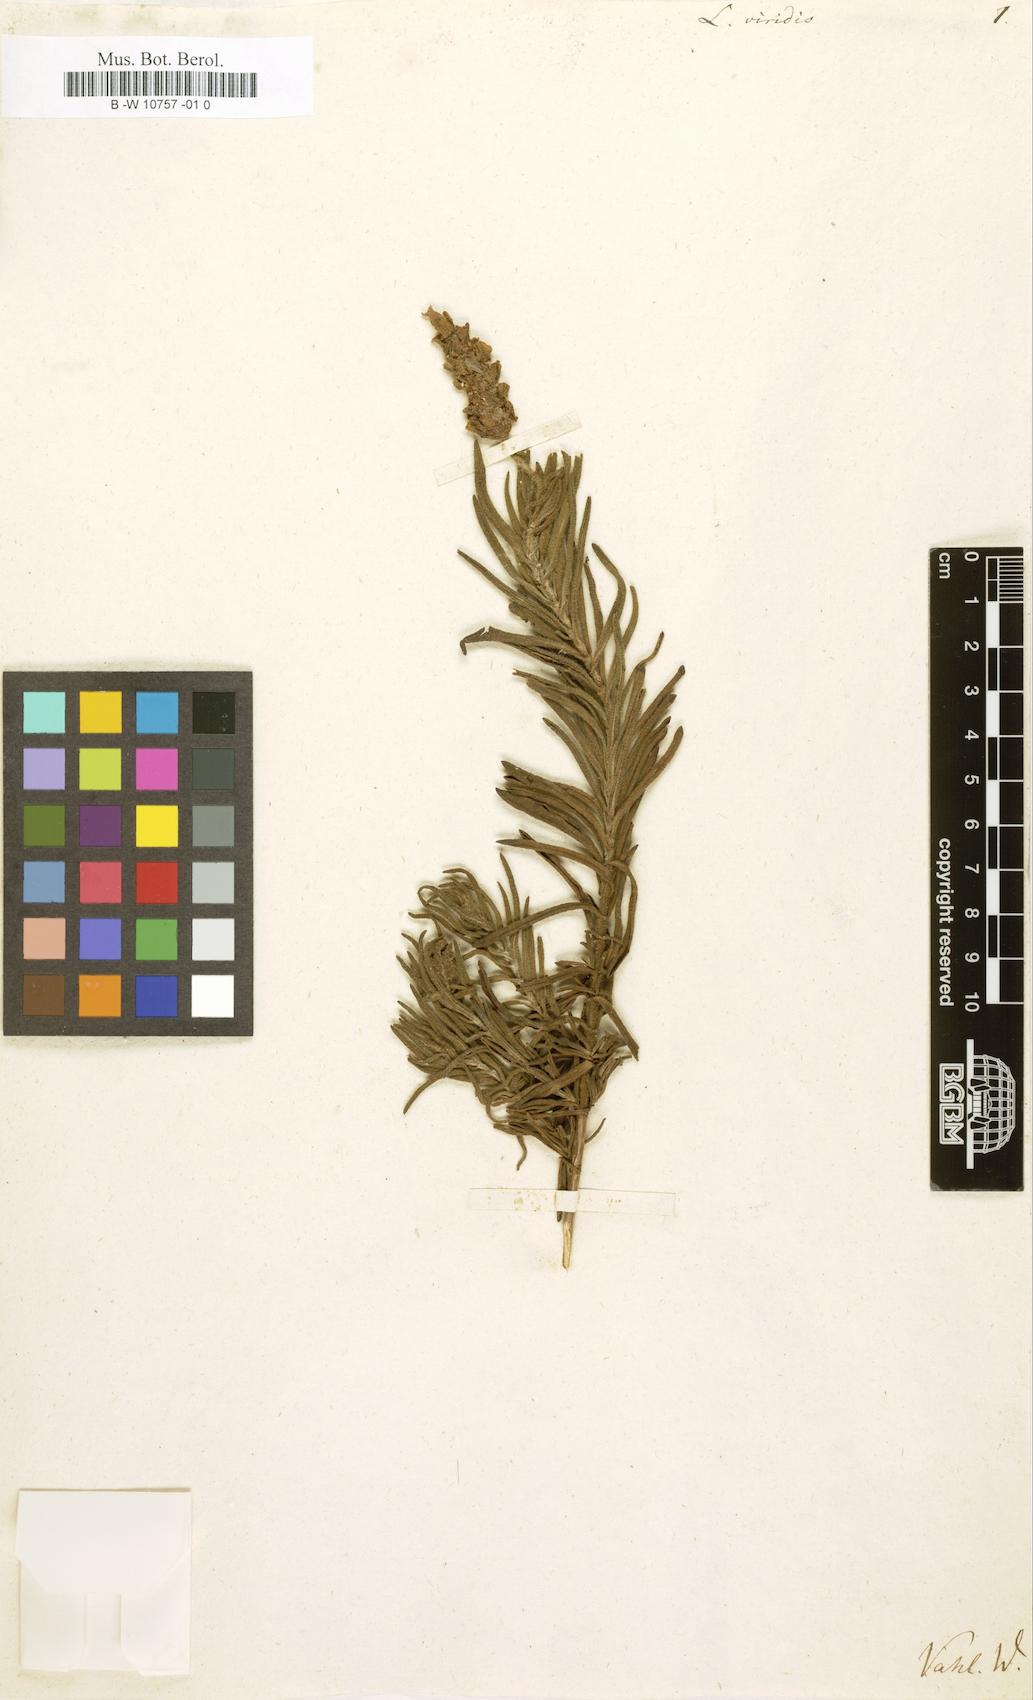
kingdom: Plantae
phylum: Tracheophyta
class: Magnoliopsida
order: Lamiales
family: Lamiaceae
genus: Lavandula
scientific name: Lavandula viridis
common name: Green spanish lavender
